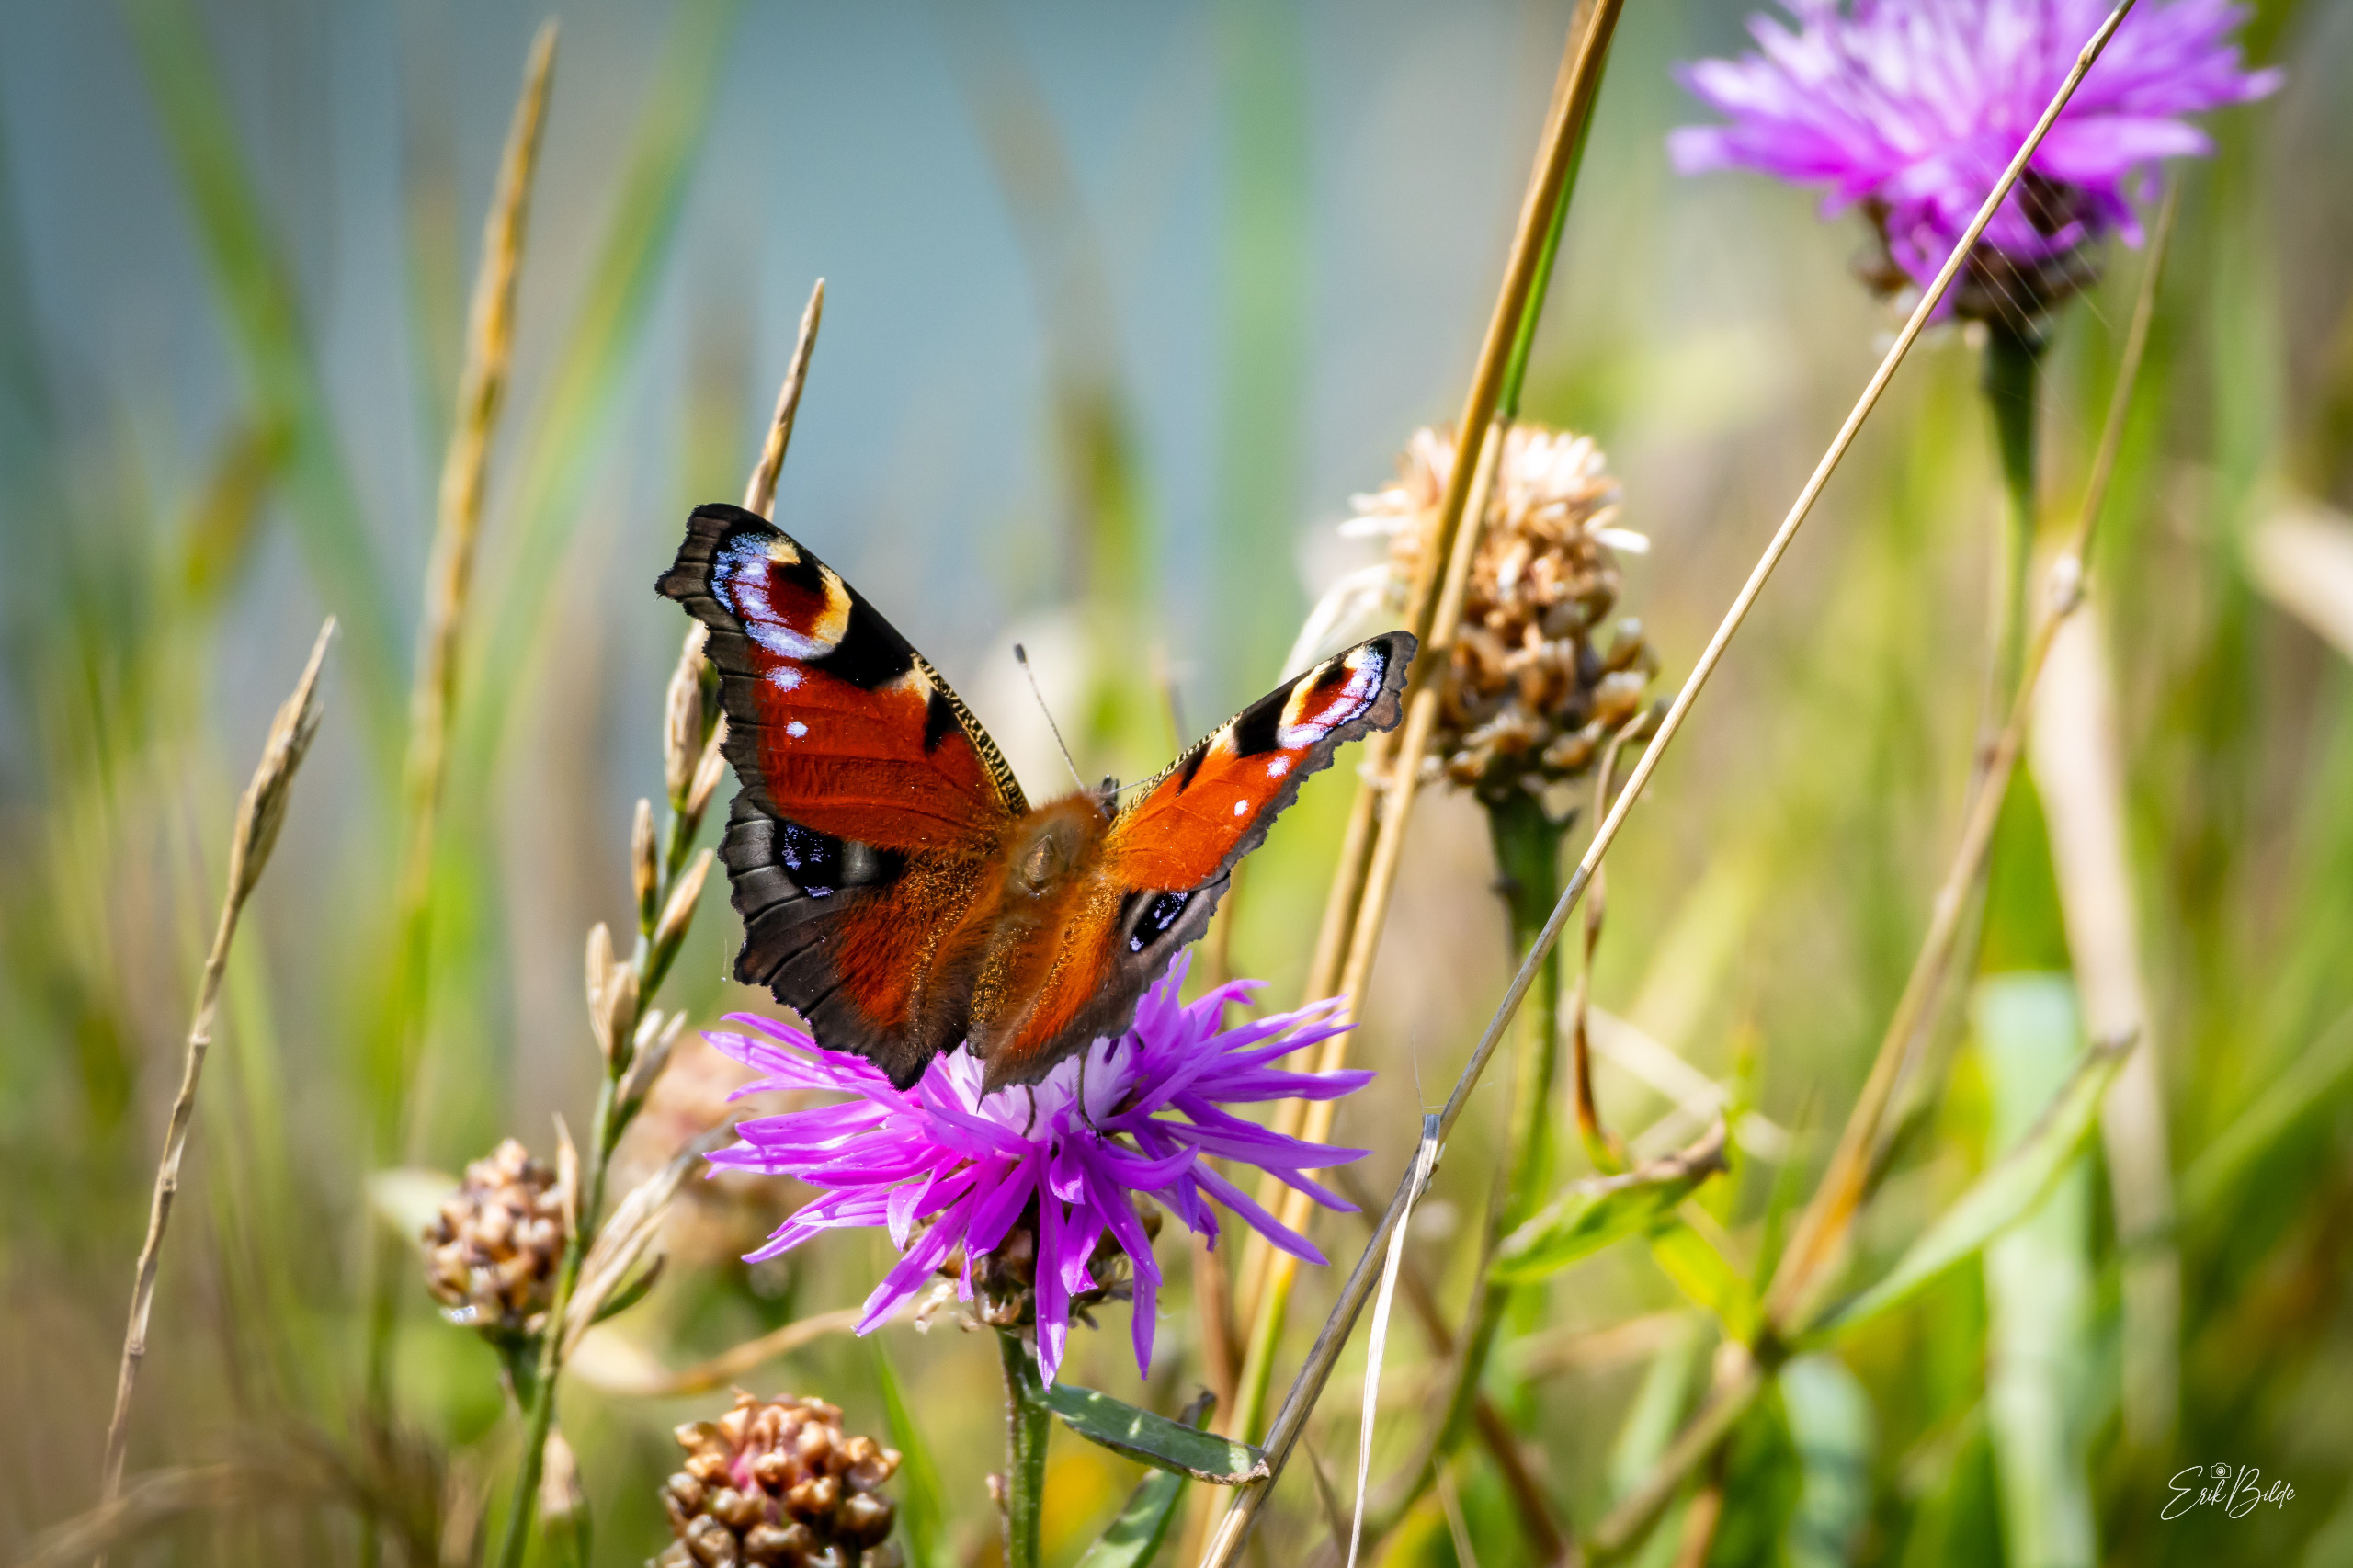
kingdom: Animalia
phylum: Arthropoda
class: Insecta
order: Lepidoptera
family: Nymphalidae
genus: Aglais
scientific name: Aglais io
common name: Dagpåfugleøje
